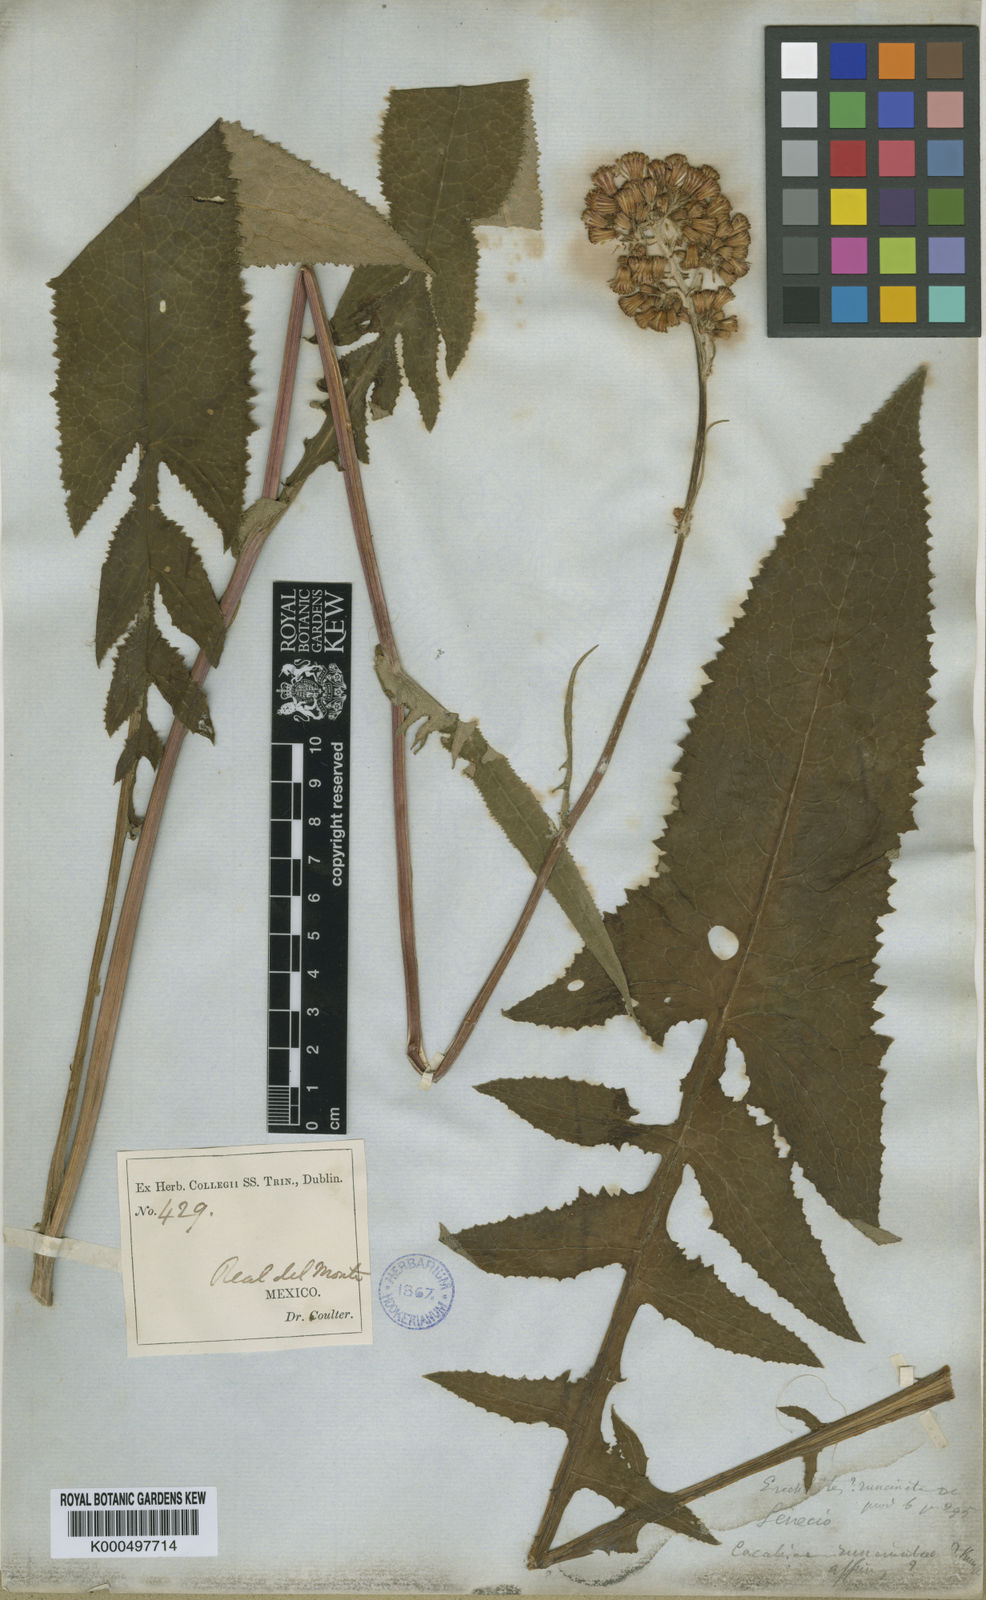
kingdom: Plantae
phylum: Tracheophyta
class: Magnoliopsida
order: Asterales
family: Asteraceae
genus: Senecio
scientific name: Senecio callosus
